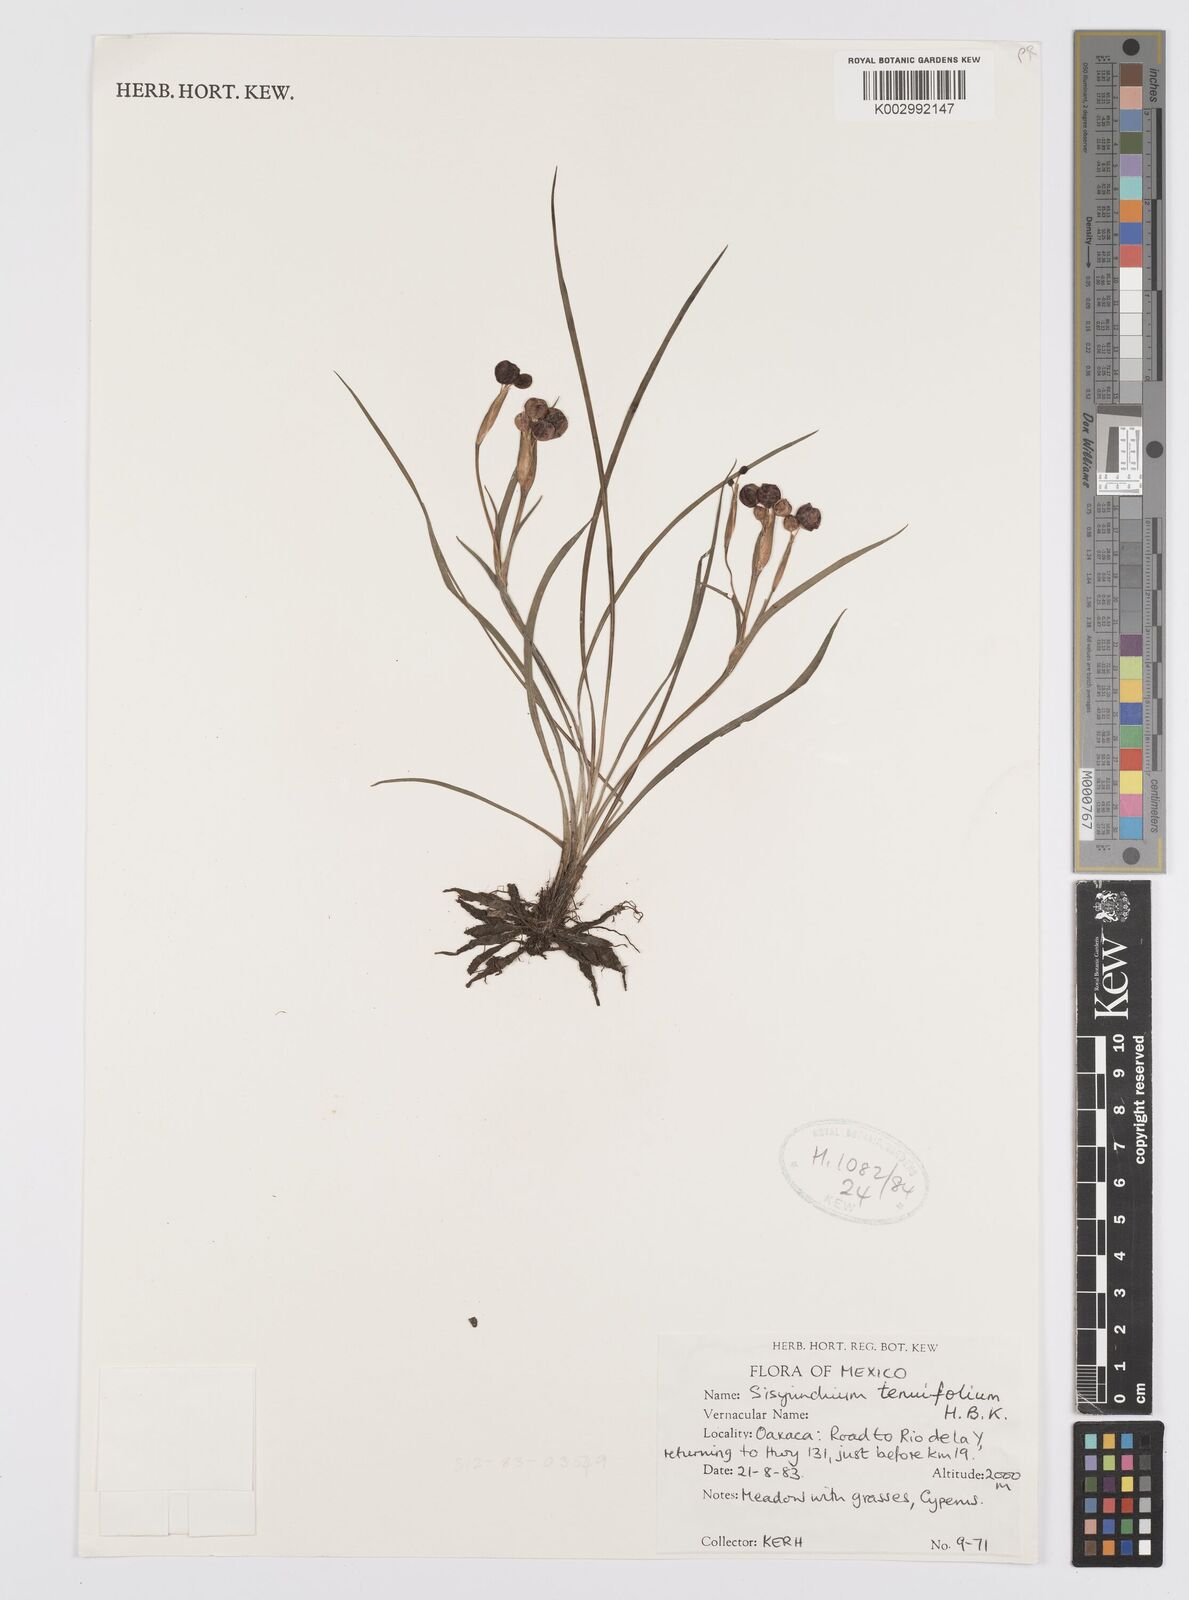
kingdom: Plantae
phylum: Tracheophyta
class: Liliopsida
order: Asparagales
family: Iridaceae
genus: Sisyrinchium
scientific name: Sisyrinchium langloisii
